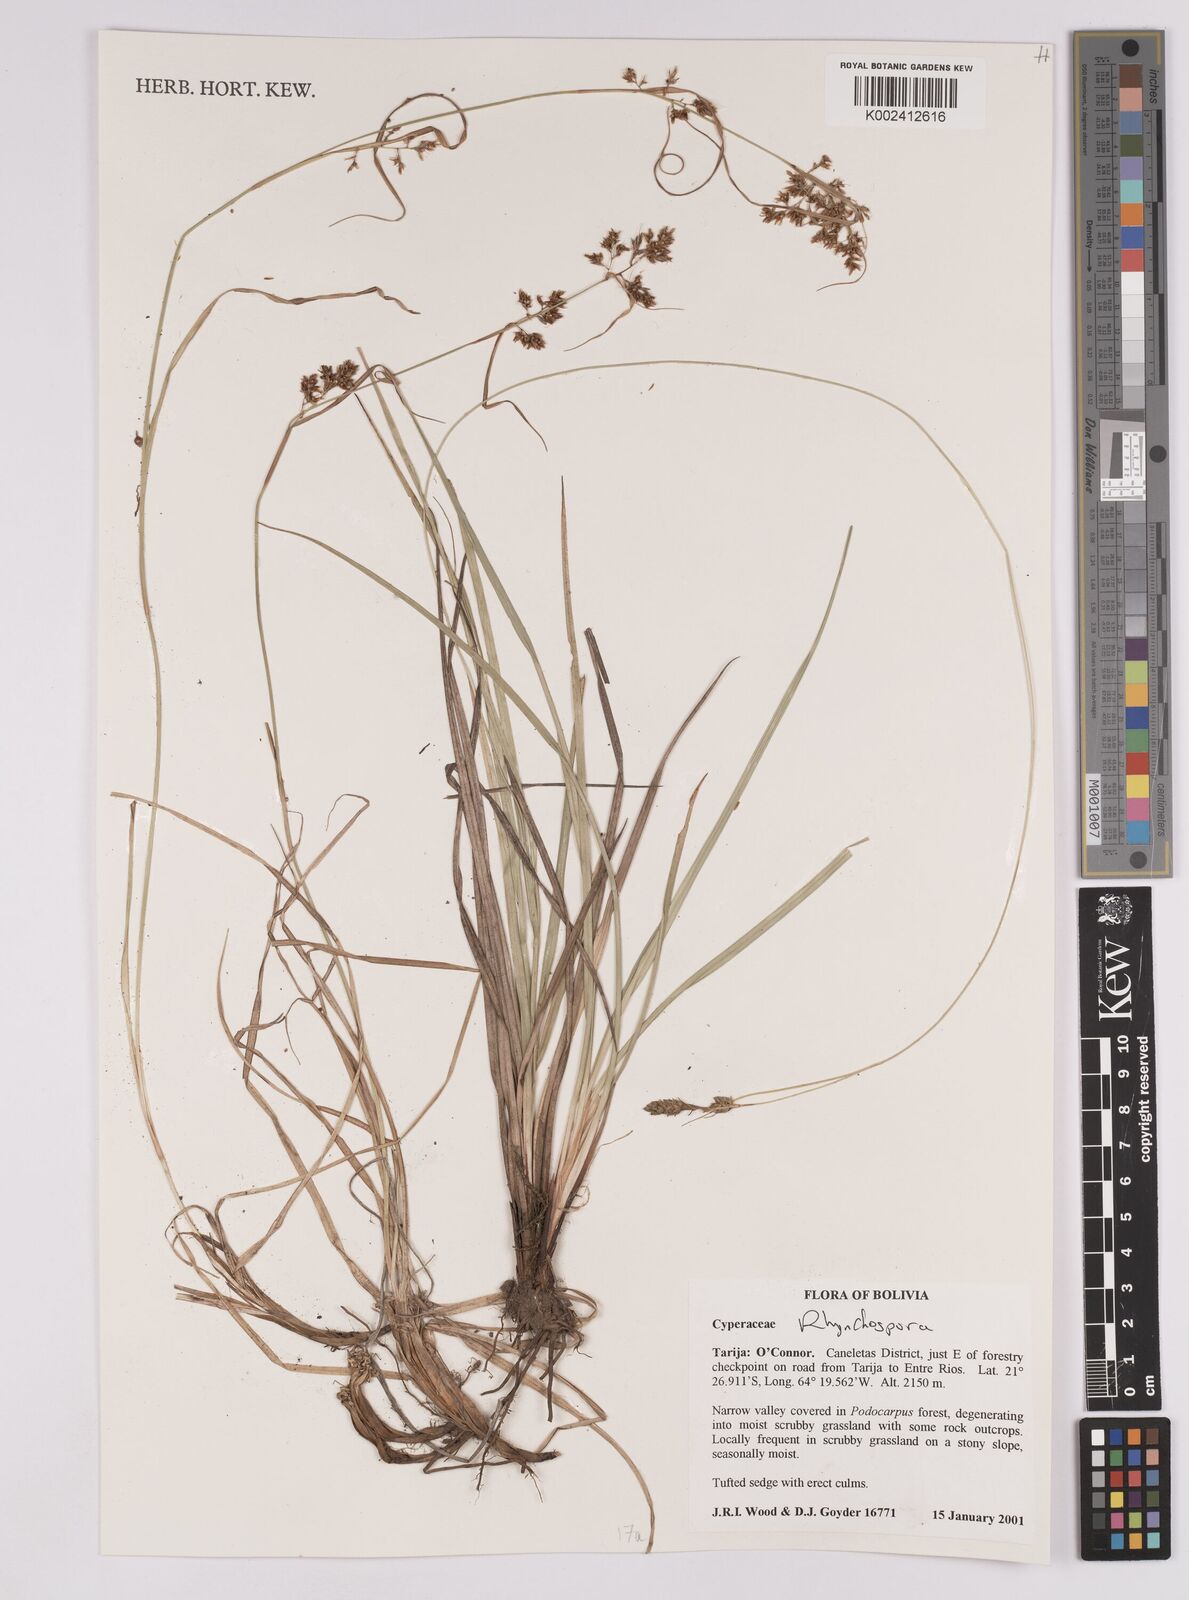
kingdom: Plantae
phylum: Tracheophyta
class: Liliopsida
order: Poales
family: Cyperaceae
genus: Rhynchospora
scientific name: Rhynchospora
